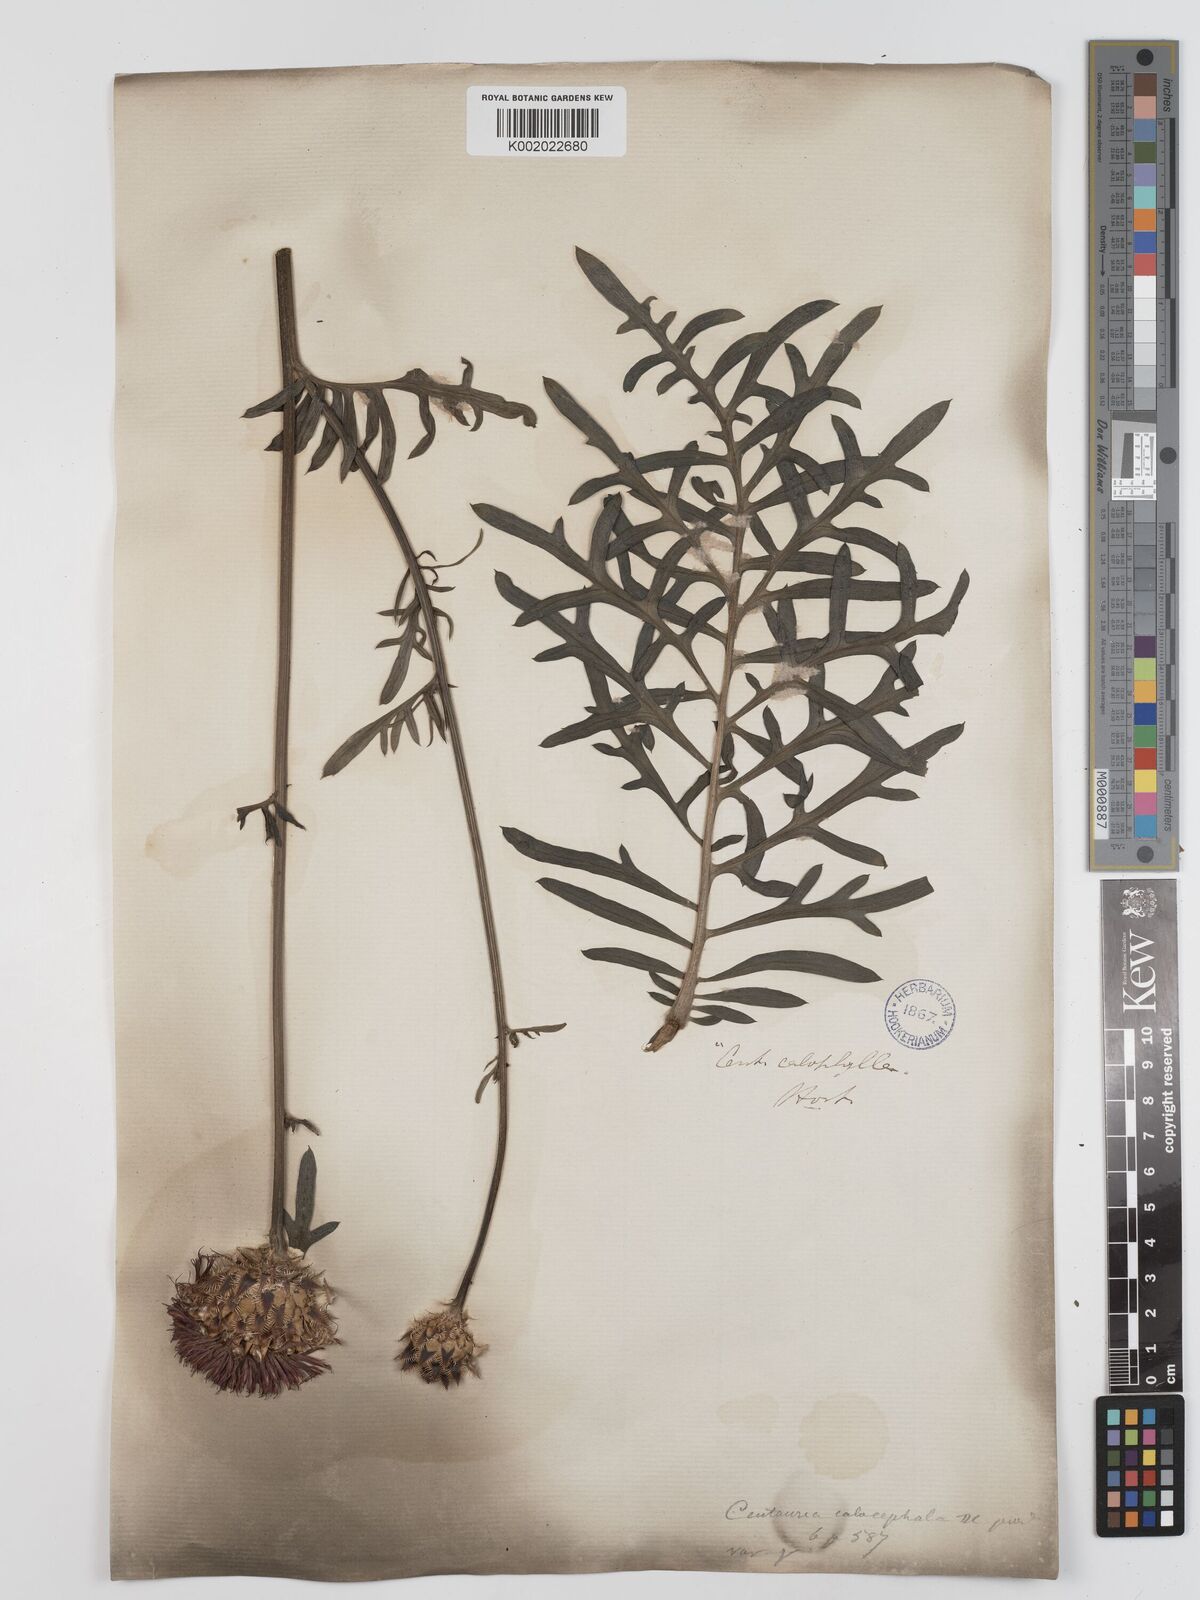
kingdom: Plantae
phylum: Tracheophyta
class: Magnoliopsida
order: Asterales
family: Asteraceae
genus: Centaurea
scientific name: Centaurea calocephala
